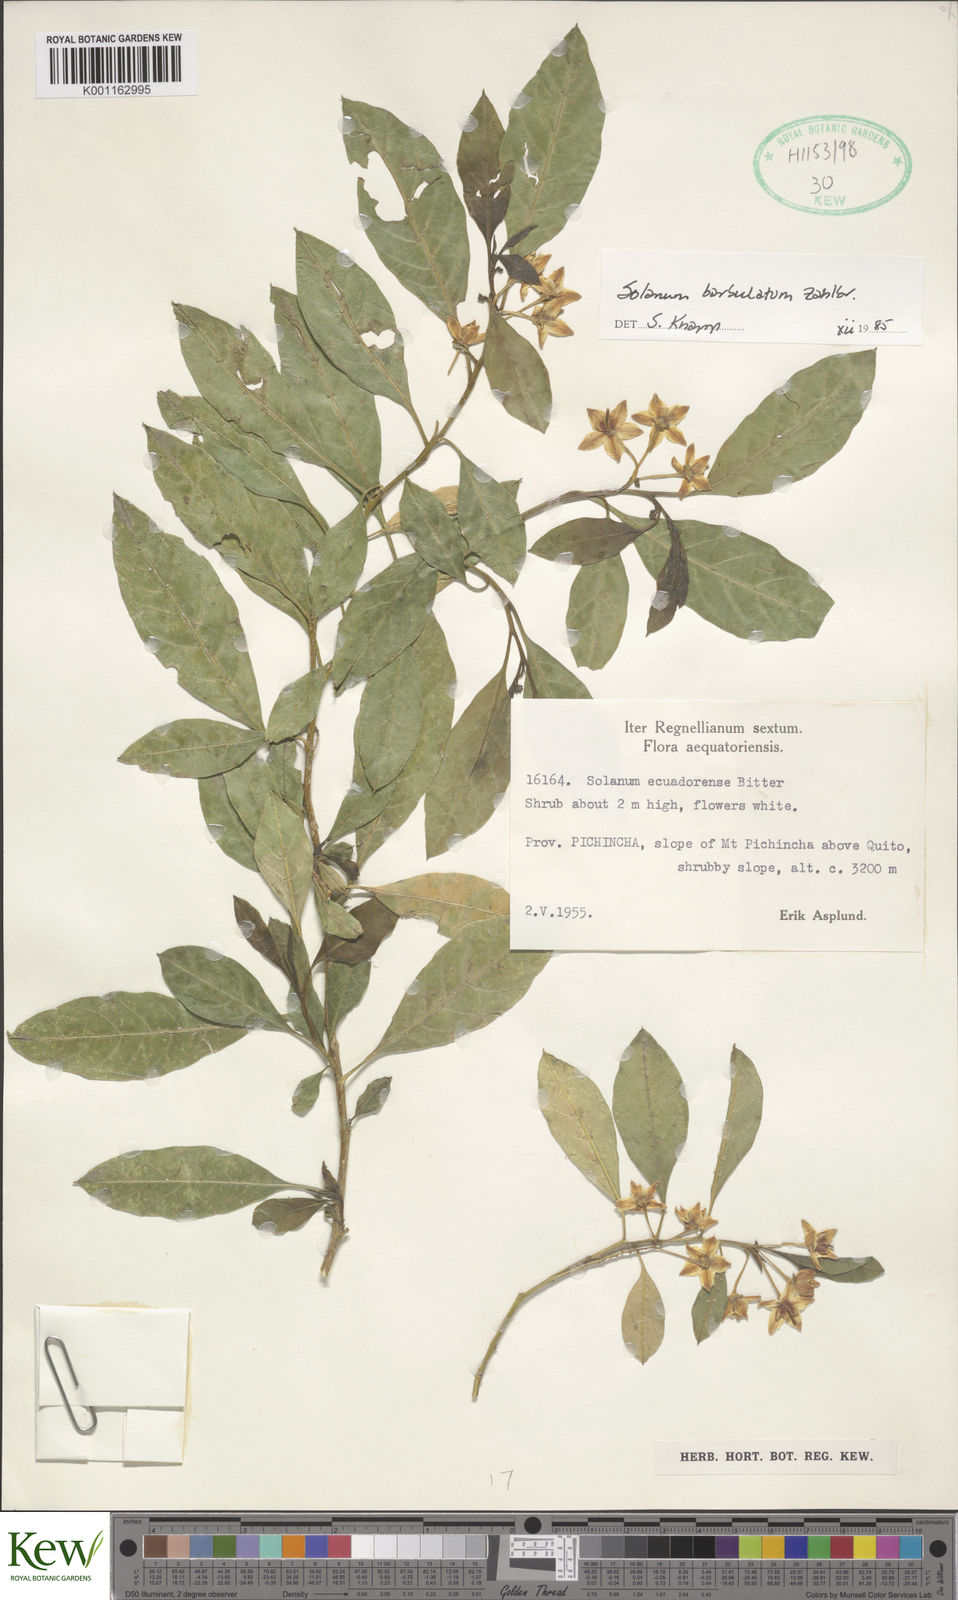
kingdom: Plantae
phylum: Tracheophyta
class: Magnoliopsida
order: Solanales
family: Solanaceae
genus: Solanum
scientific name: Solanum barbulatum
